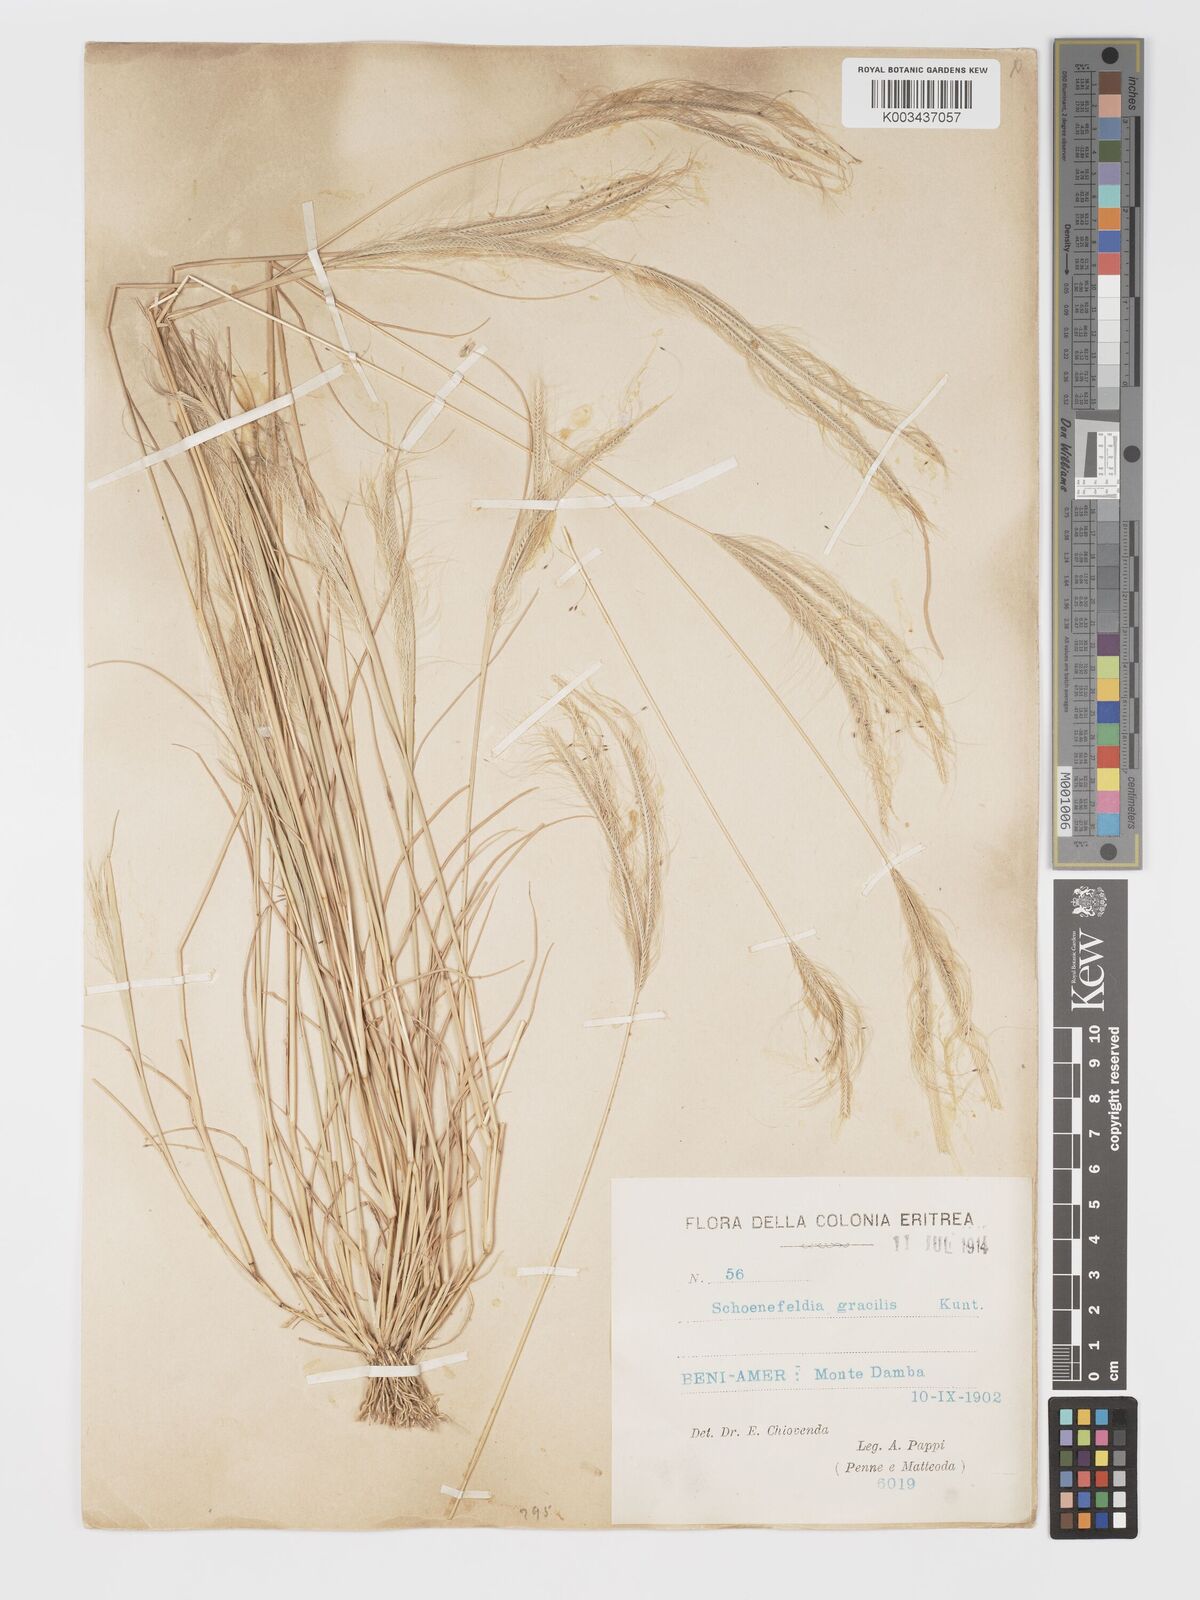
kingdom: Plantae
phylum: Tracheophyta
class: Liliopsida
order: Poales
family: Poaceae
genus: Schoenefeldia
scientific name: Schoenefeldia gracilis
